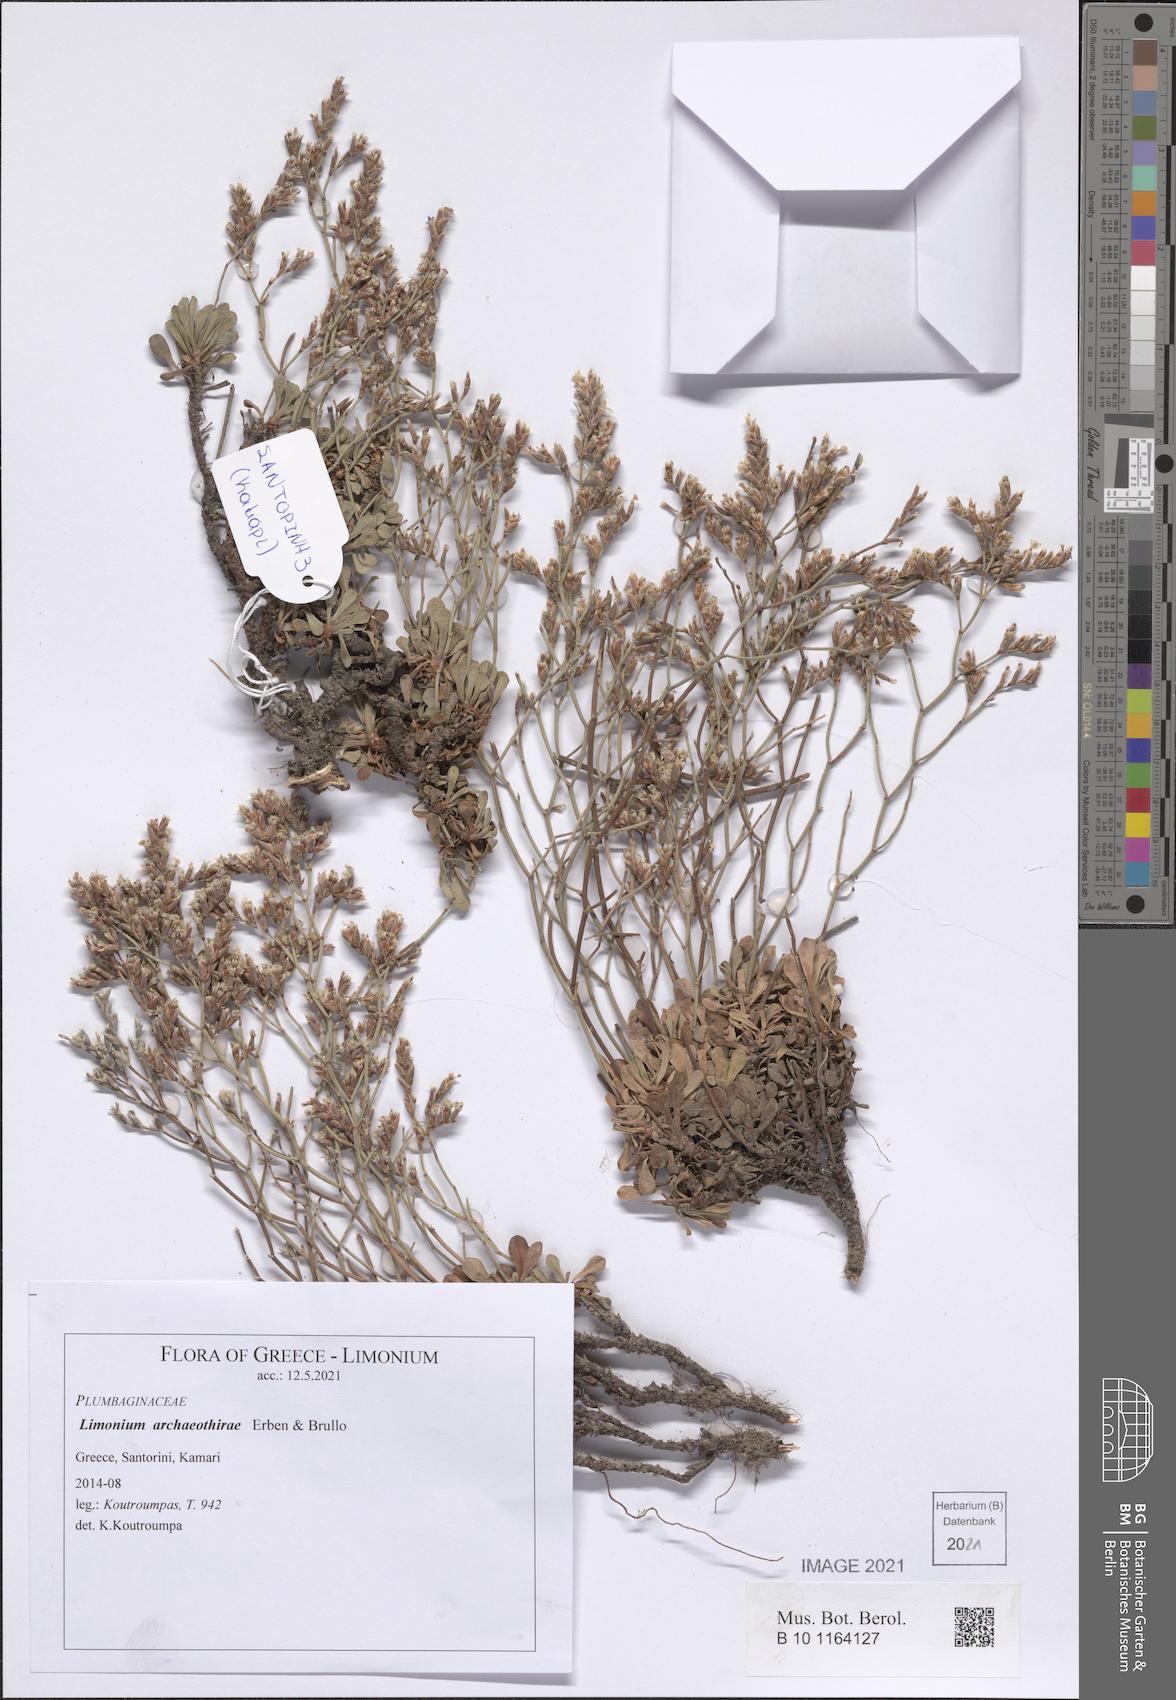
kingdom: Plantae
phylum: Tracheophyta
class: Magnoliopsida
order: Caryophyllales
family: Plumbaginaceae
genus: Limonium
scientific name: Limonium archeothirae
